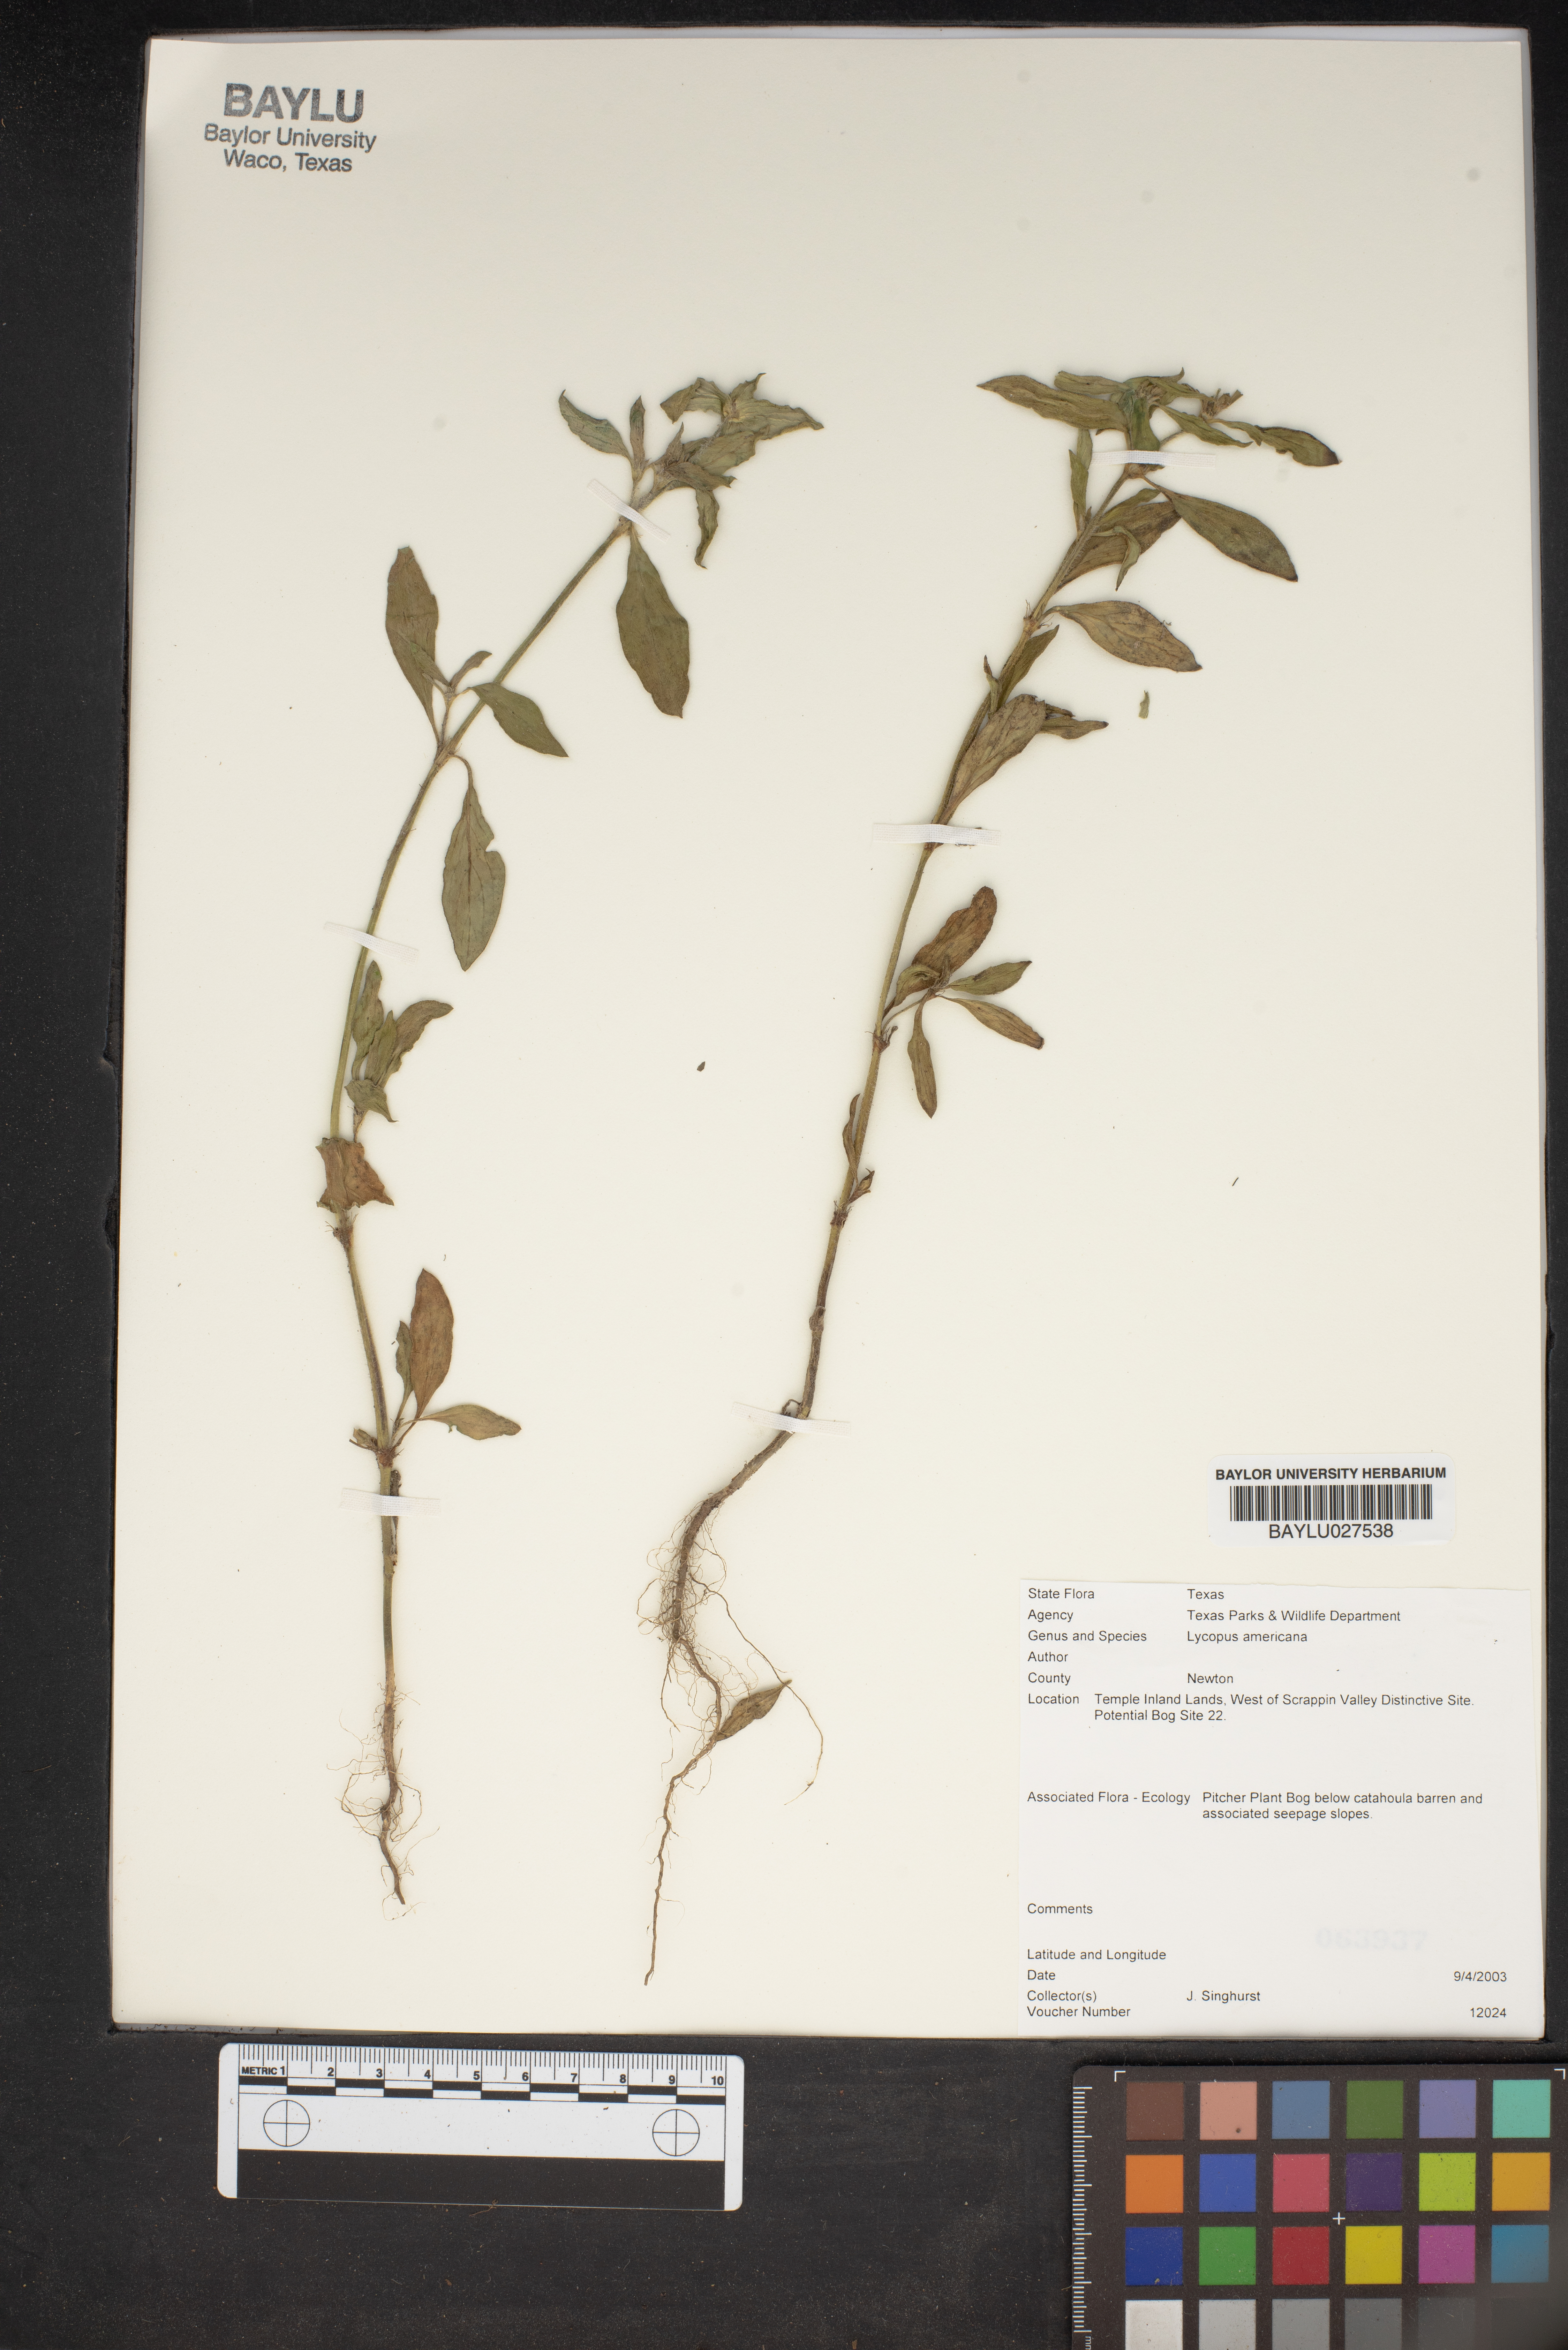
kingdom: Plantae
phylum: Tracheophyta
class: Magnoliopsida
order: Lamiales
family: Lamiaceae
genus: Lycopus
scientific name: Lycopus americanus
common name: American bugleweed
